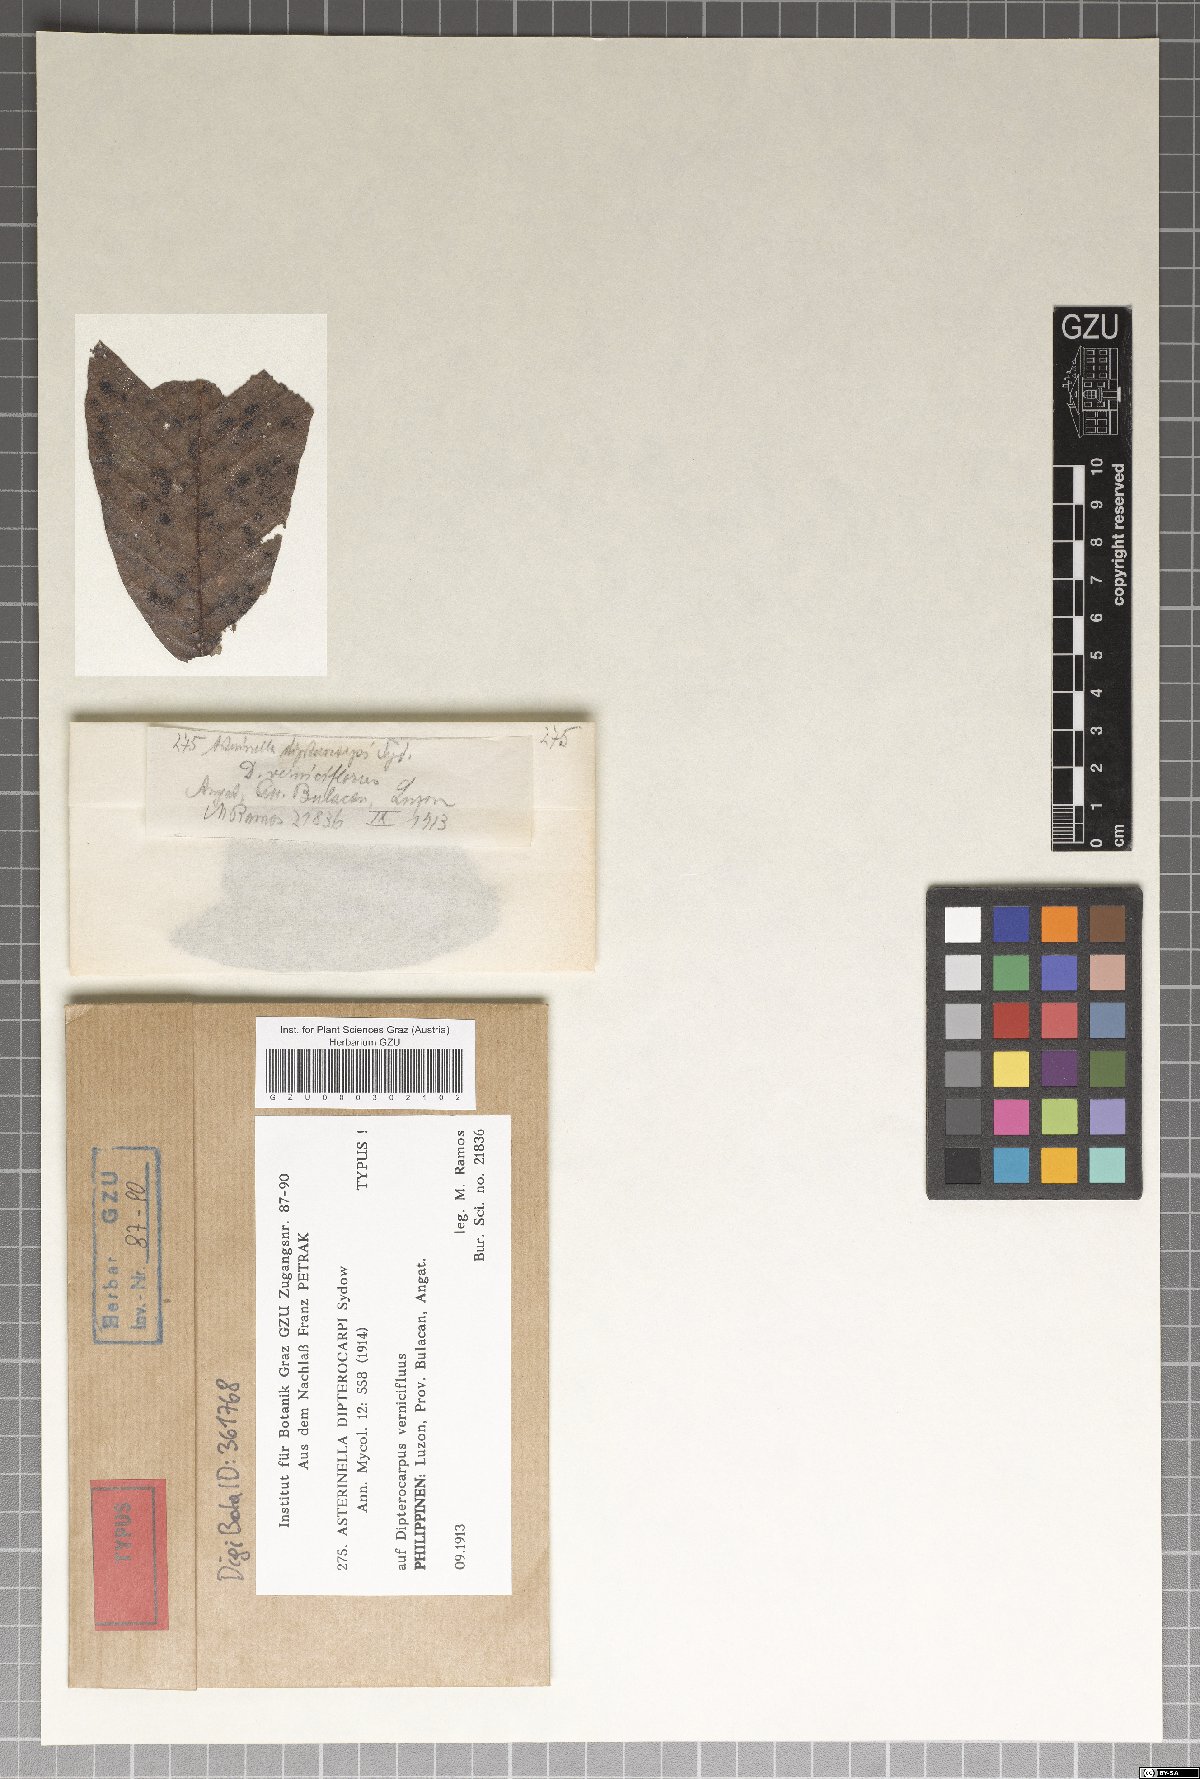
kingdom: Fungi
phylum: Ascomycota
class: Dothideomycetes
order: Asterinales
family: Asterinaceae
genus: Prillieuxina
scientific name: Prillieuxina dipterocarpi
